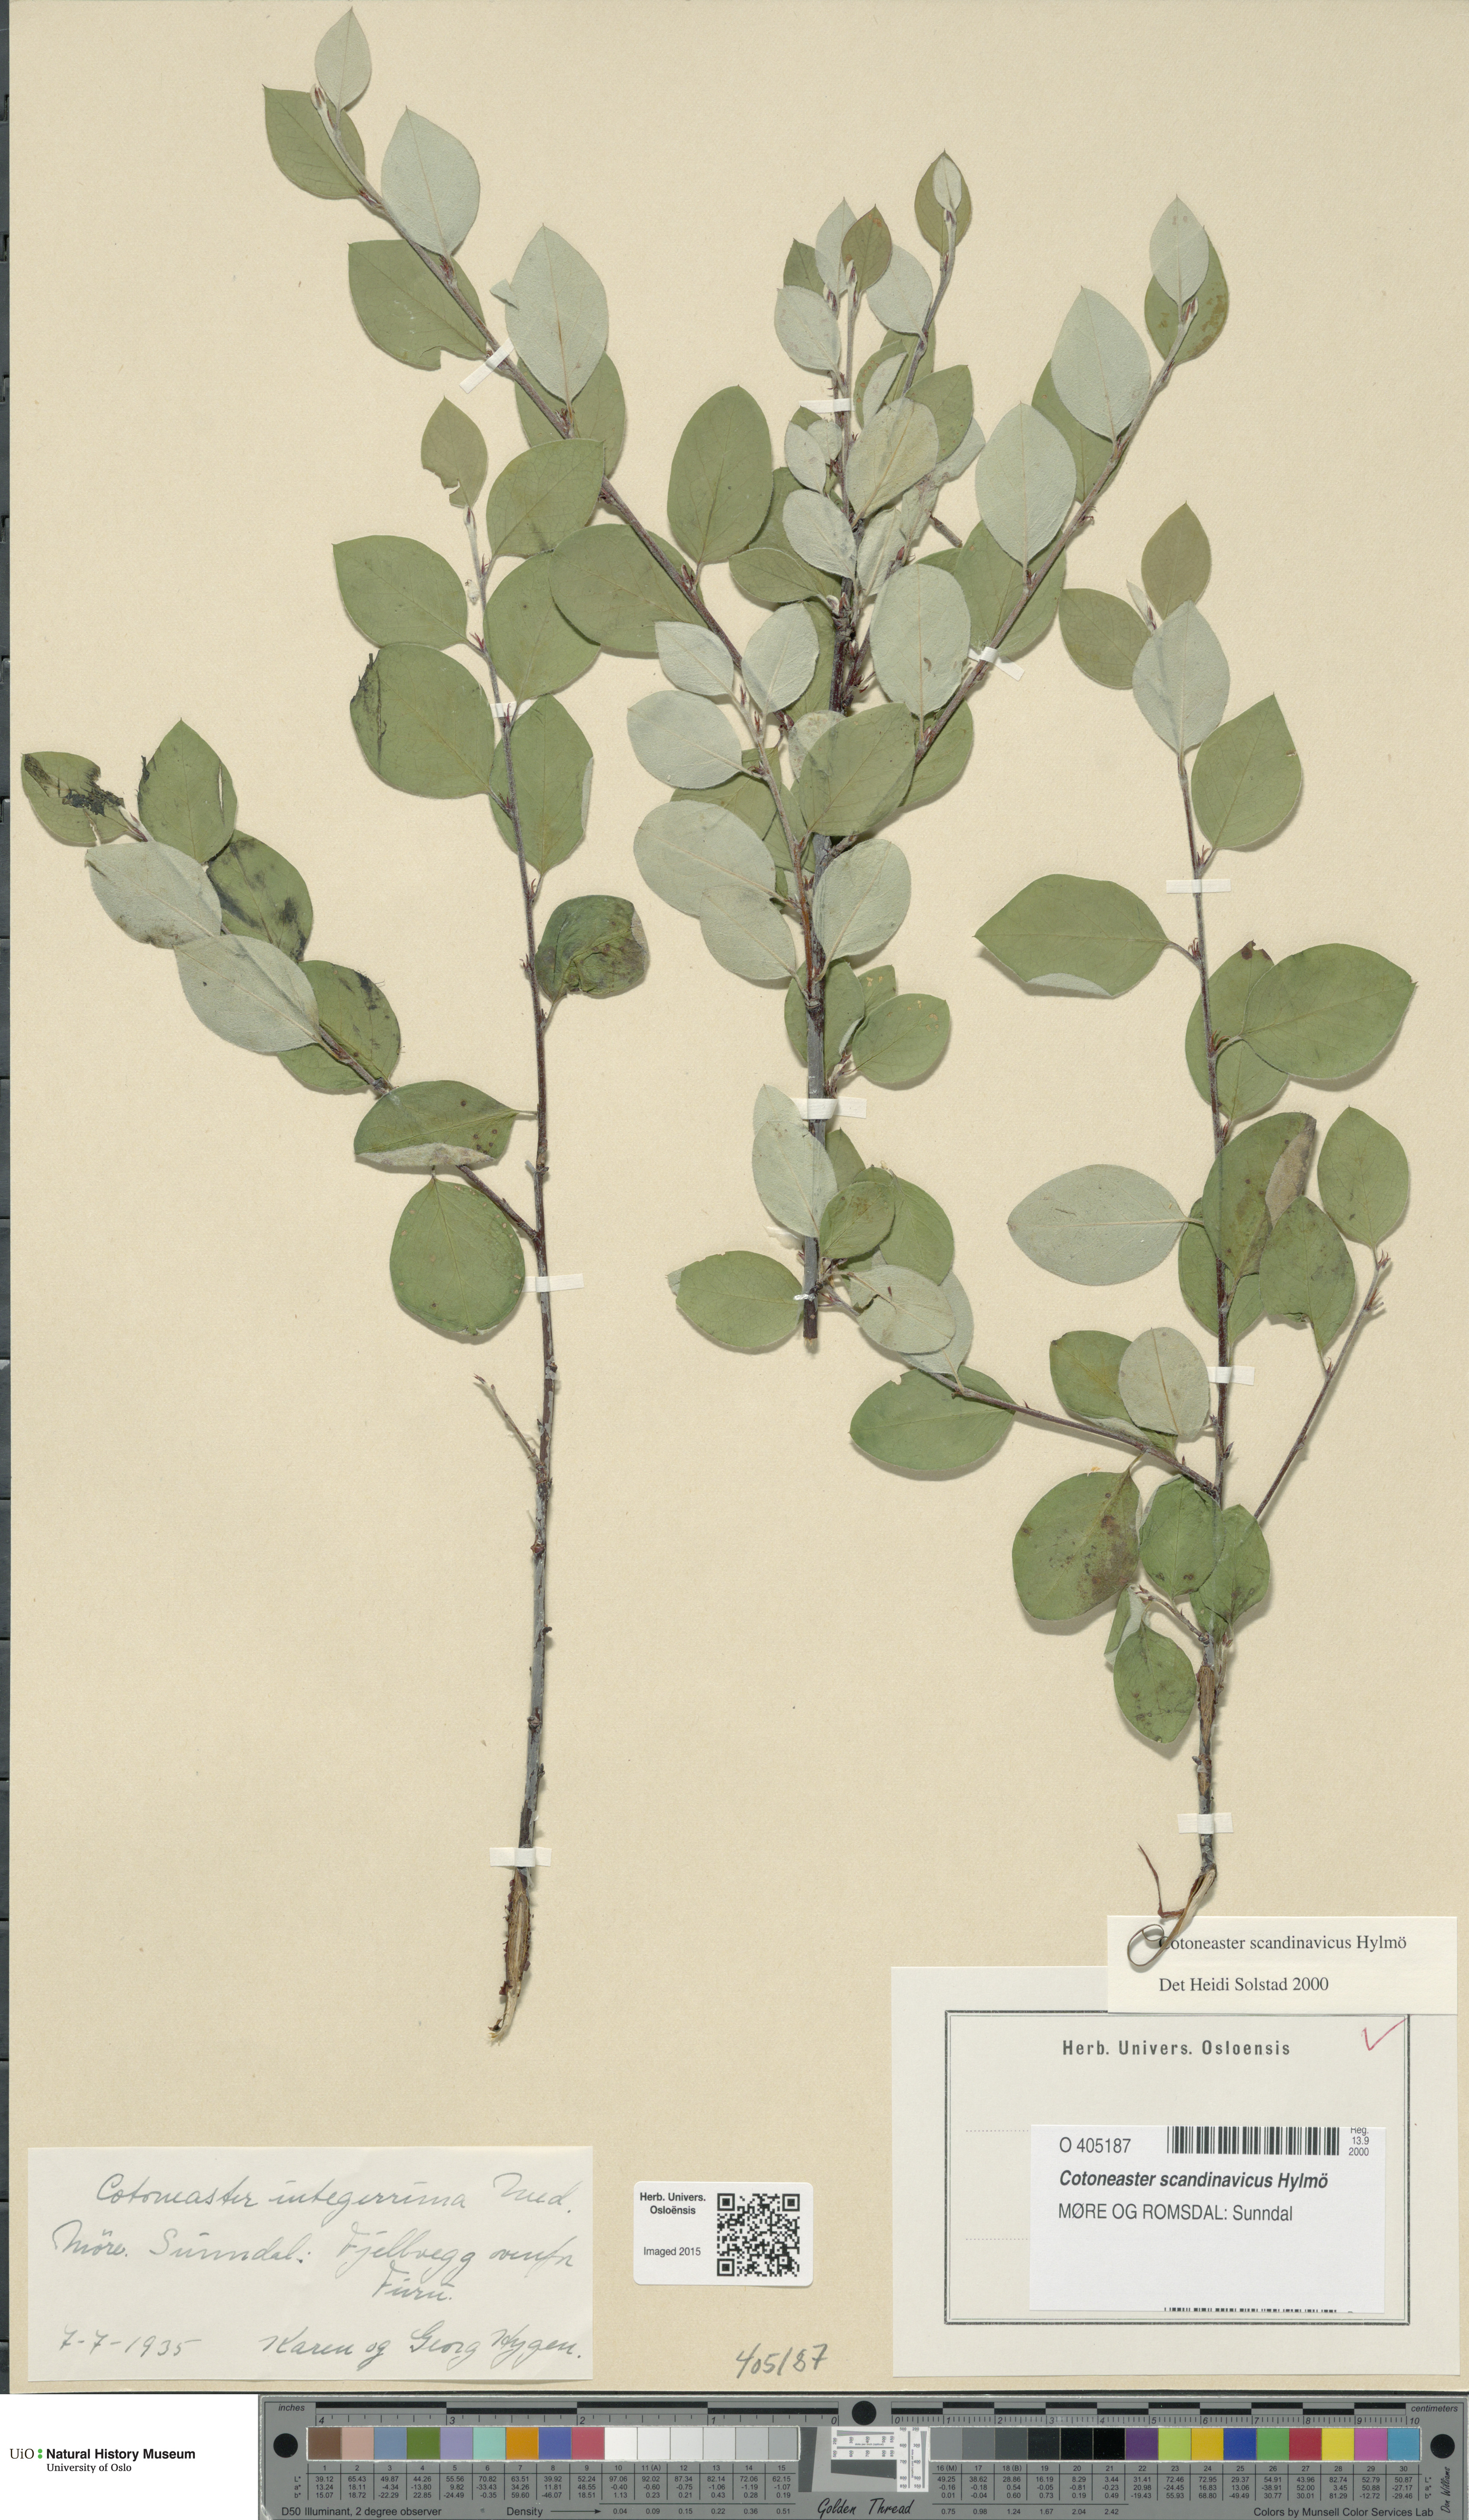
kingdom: Plantae
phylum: Tracheophyta
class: Magnoliopsida
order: Rosales
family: Rosaceae
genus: Cotoneaster
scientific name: Cotoneaster integerrimus
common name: Wild cotoneaster
